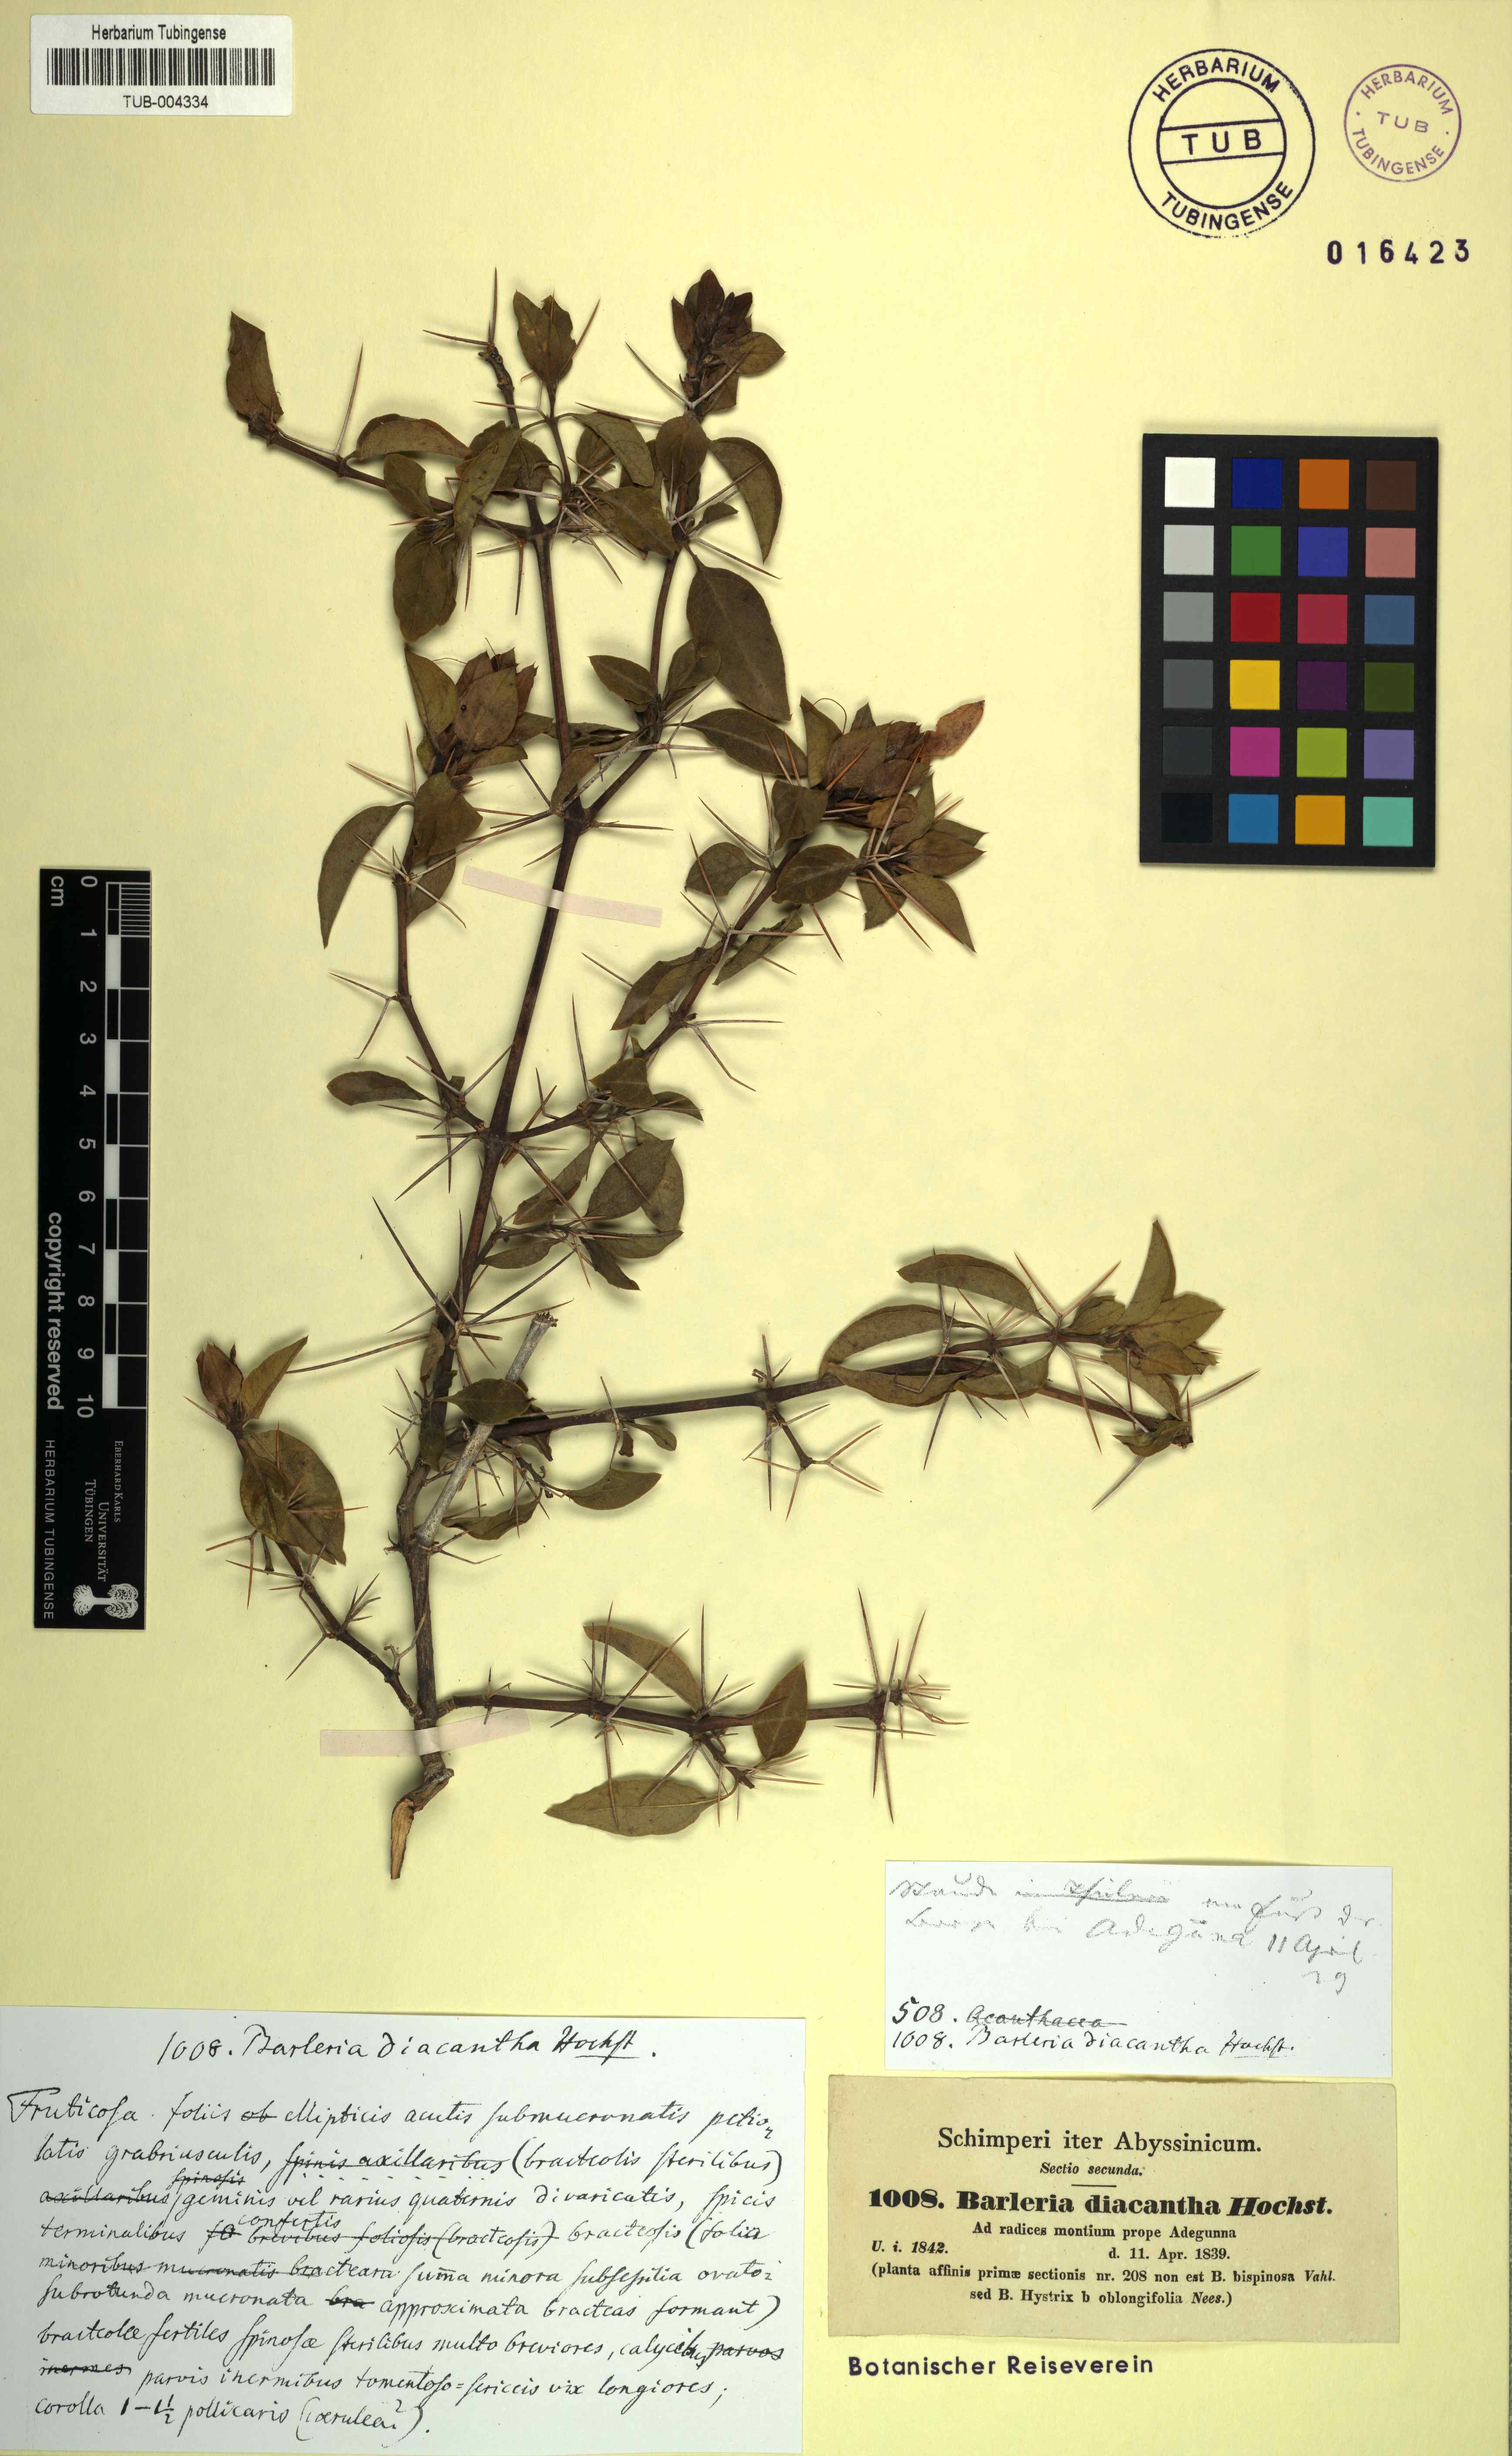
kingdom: Plantae
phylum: Tracheophyta
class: Magnoliopsida
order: Lamiales
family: Acanthaceae
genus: Barleria
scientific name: Barleria prionitis
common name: Barleria
